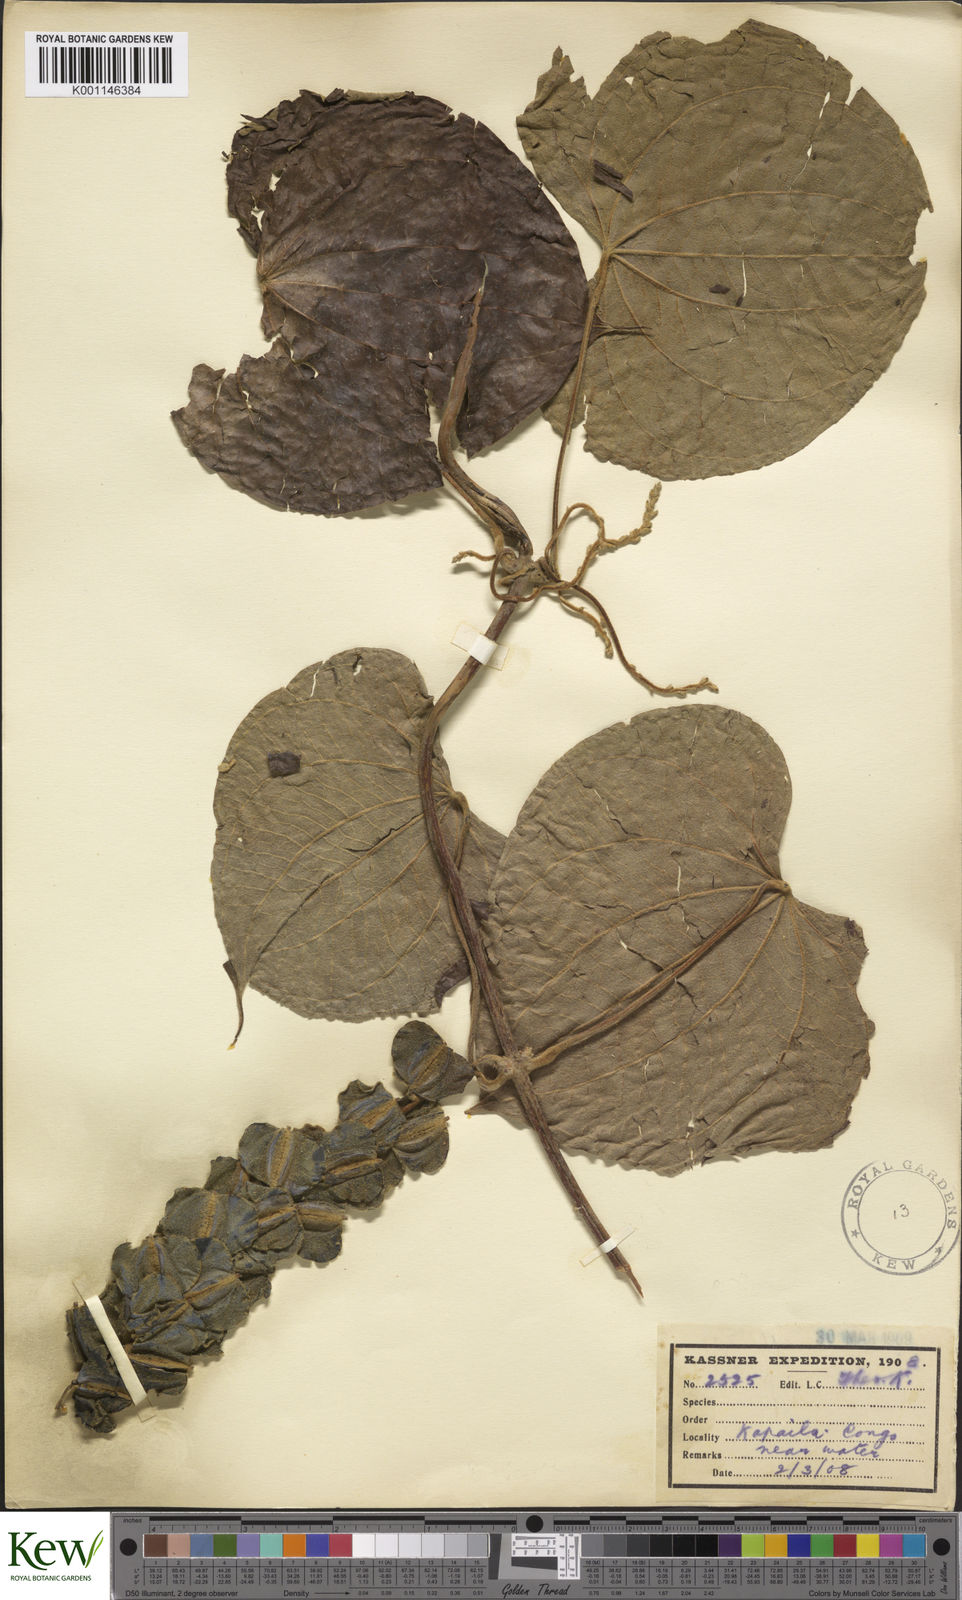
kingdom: Plantae
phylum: Tracheophyta
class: Liliopsida
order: Dioscoreales
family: Dioscoreaceae
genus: Dioscorea
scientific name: Dioscorea schimperiana
